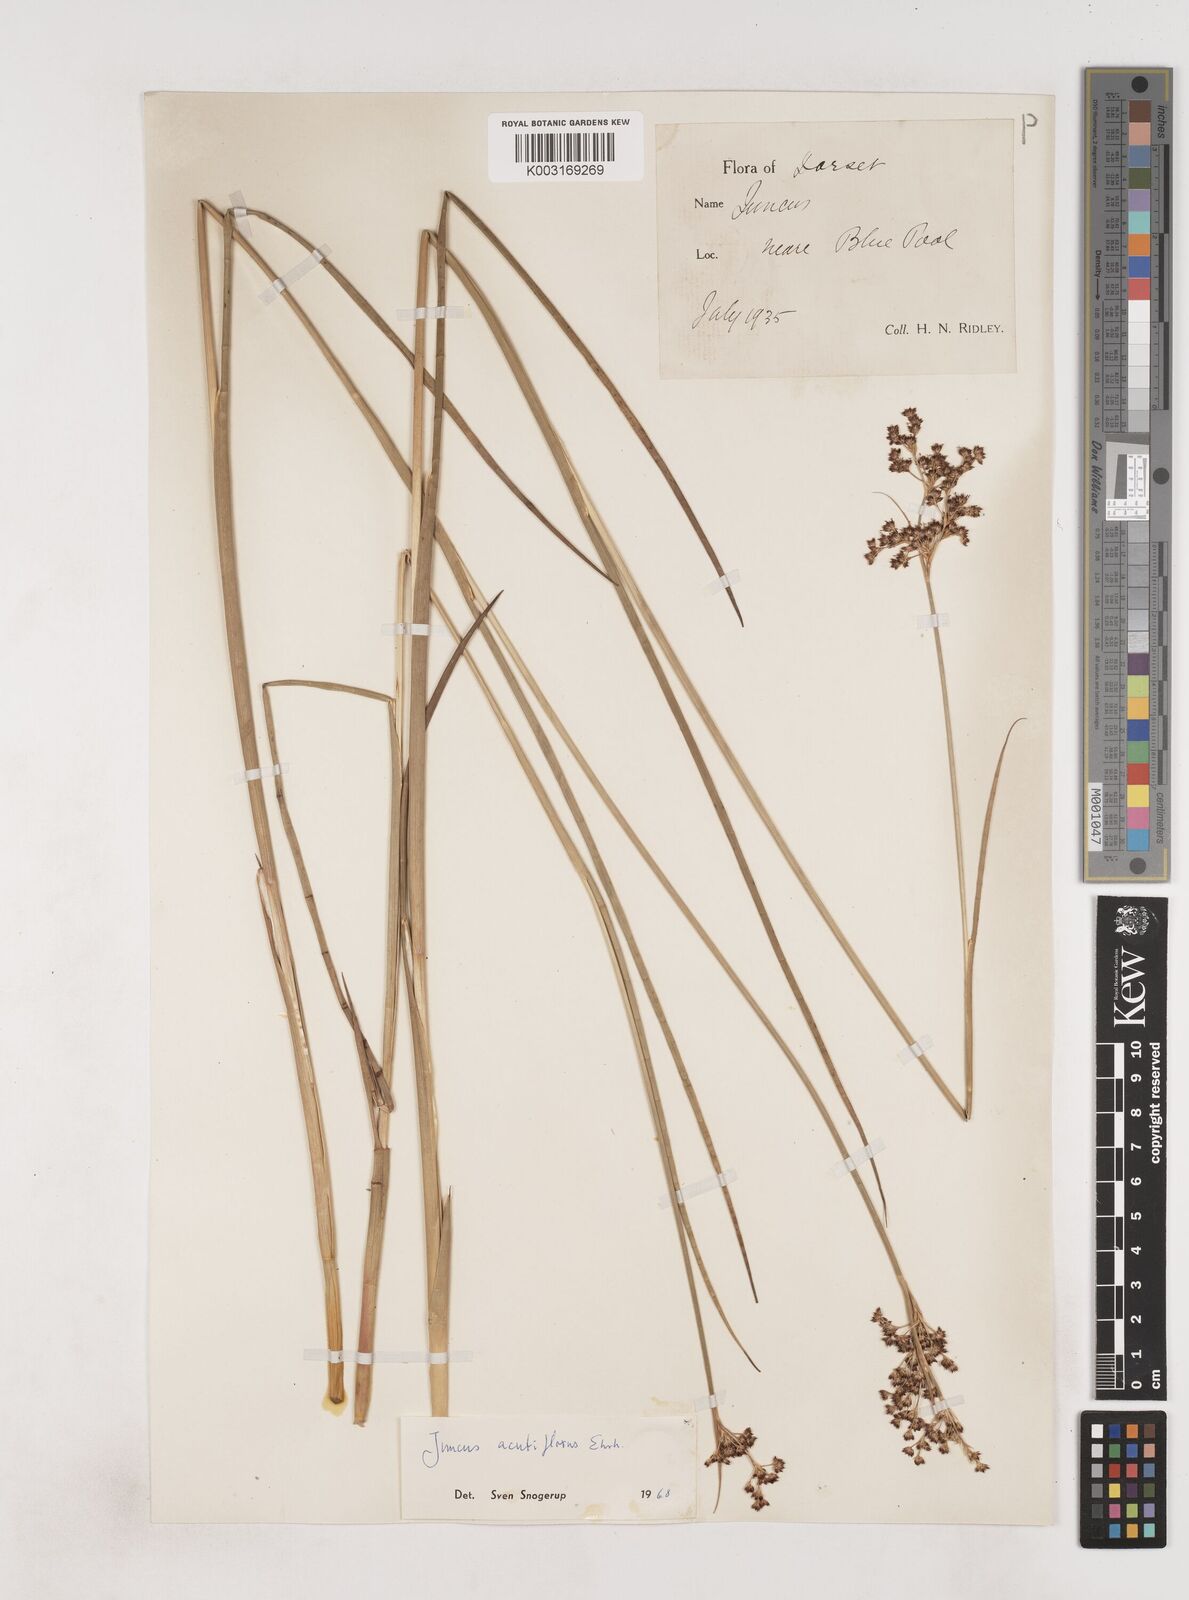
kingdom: Plantae
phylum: Tracheophyta
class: Liliopsida
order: Poales
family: Juncaceae
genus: Juncus
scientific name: Juncus acutiflorus
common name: Sharp-flowered rush
